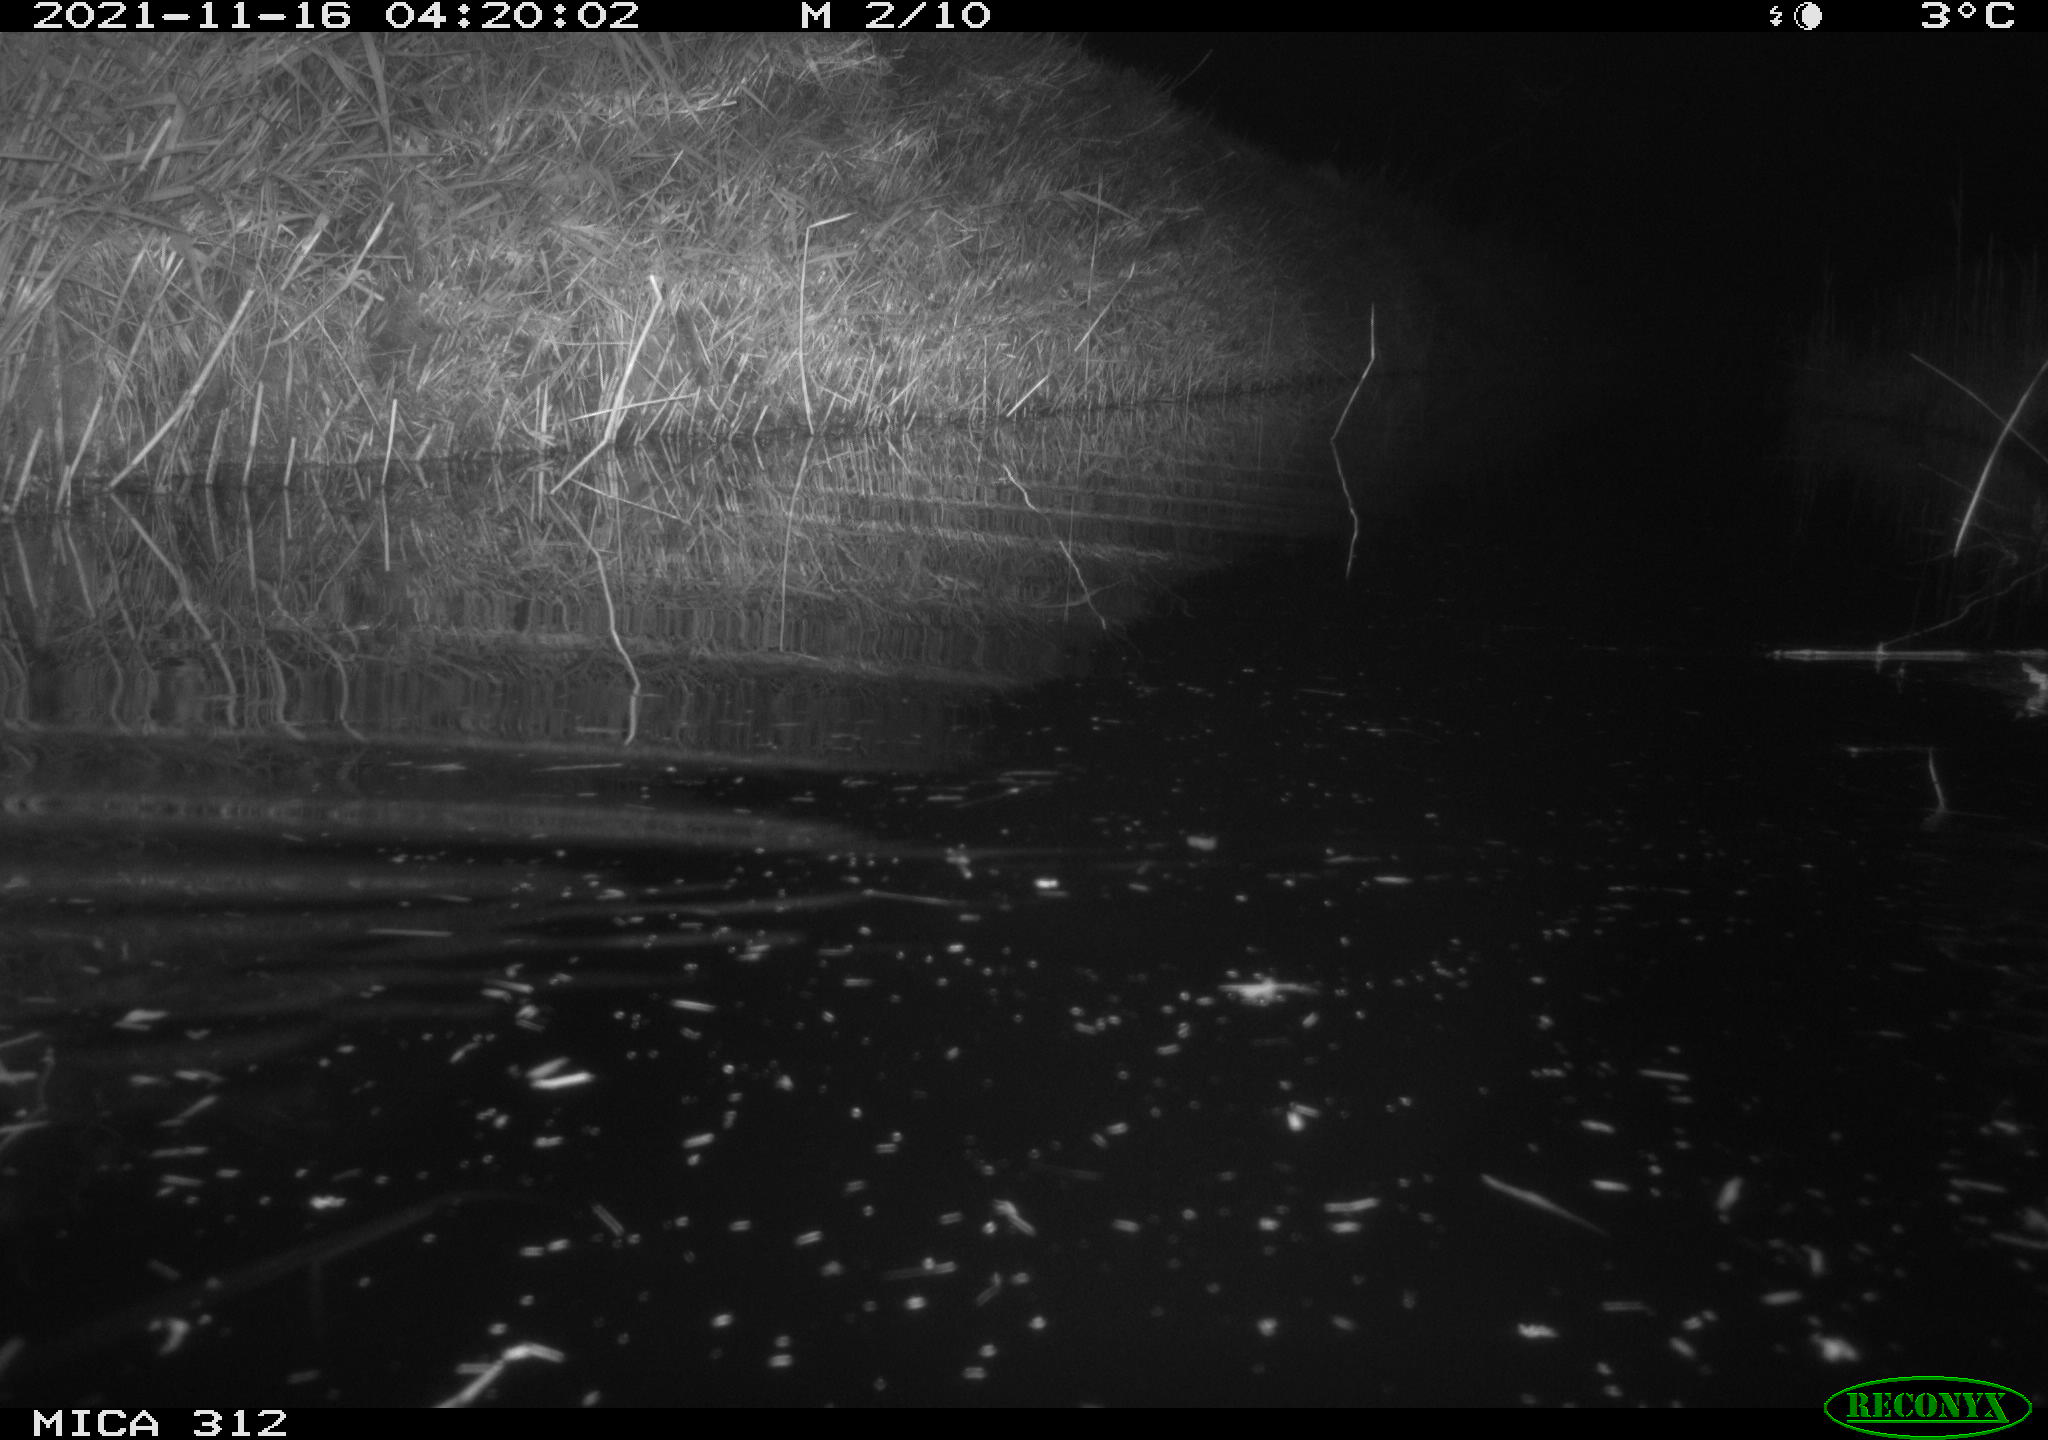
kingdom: Animalia
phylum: Chordata
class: Mammalia
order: Rodentia
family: Muridae
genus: Rattus
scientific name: Rattus norvegicus
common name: Brown rat
